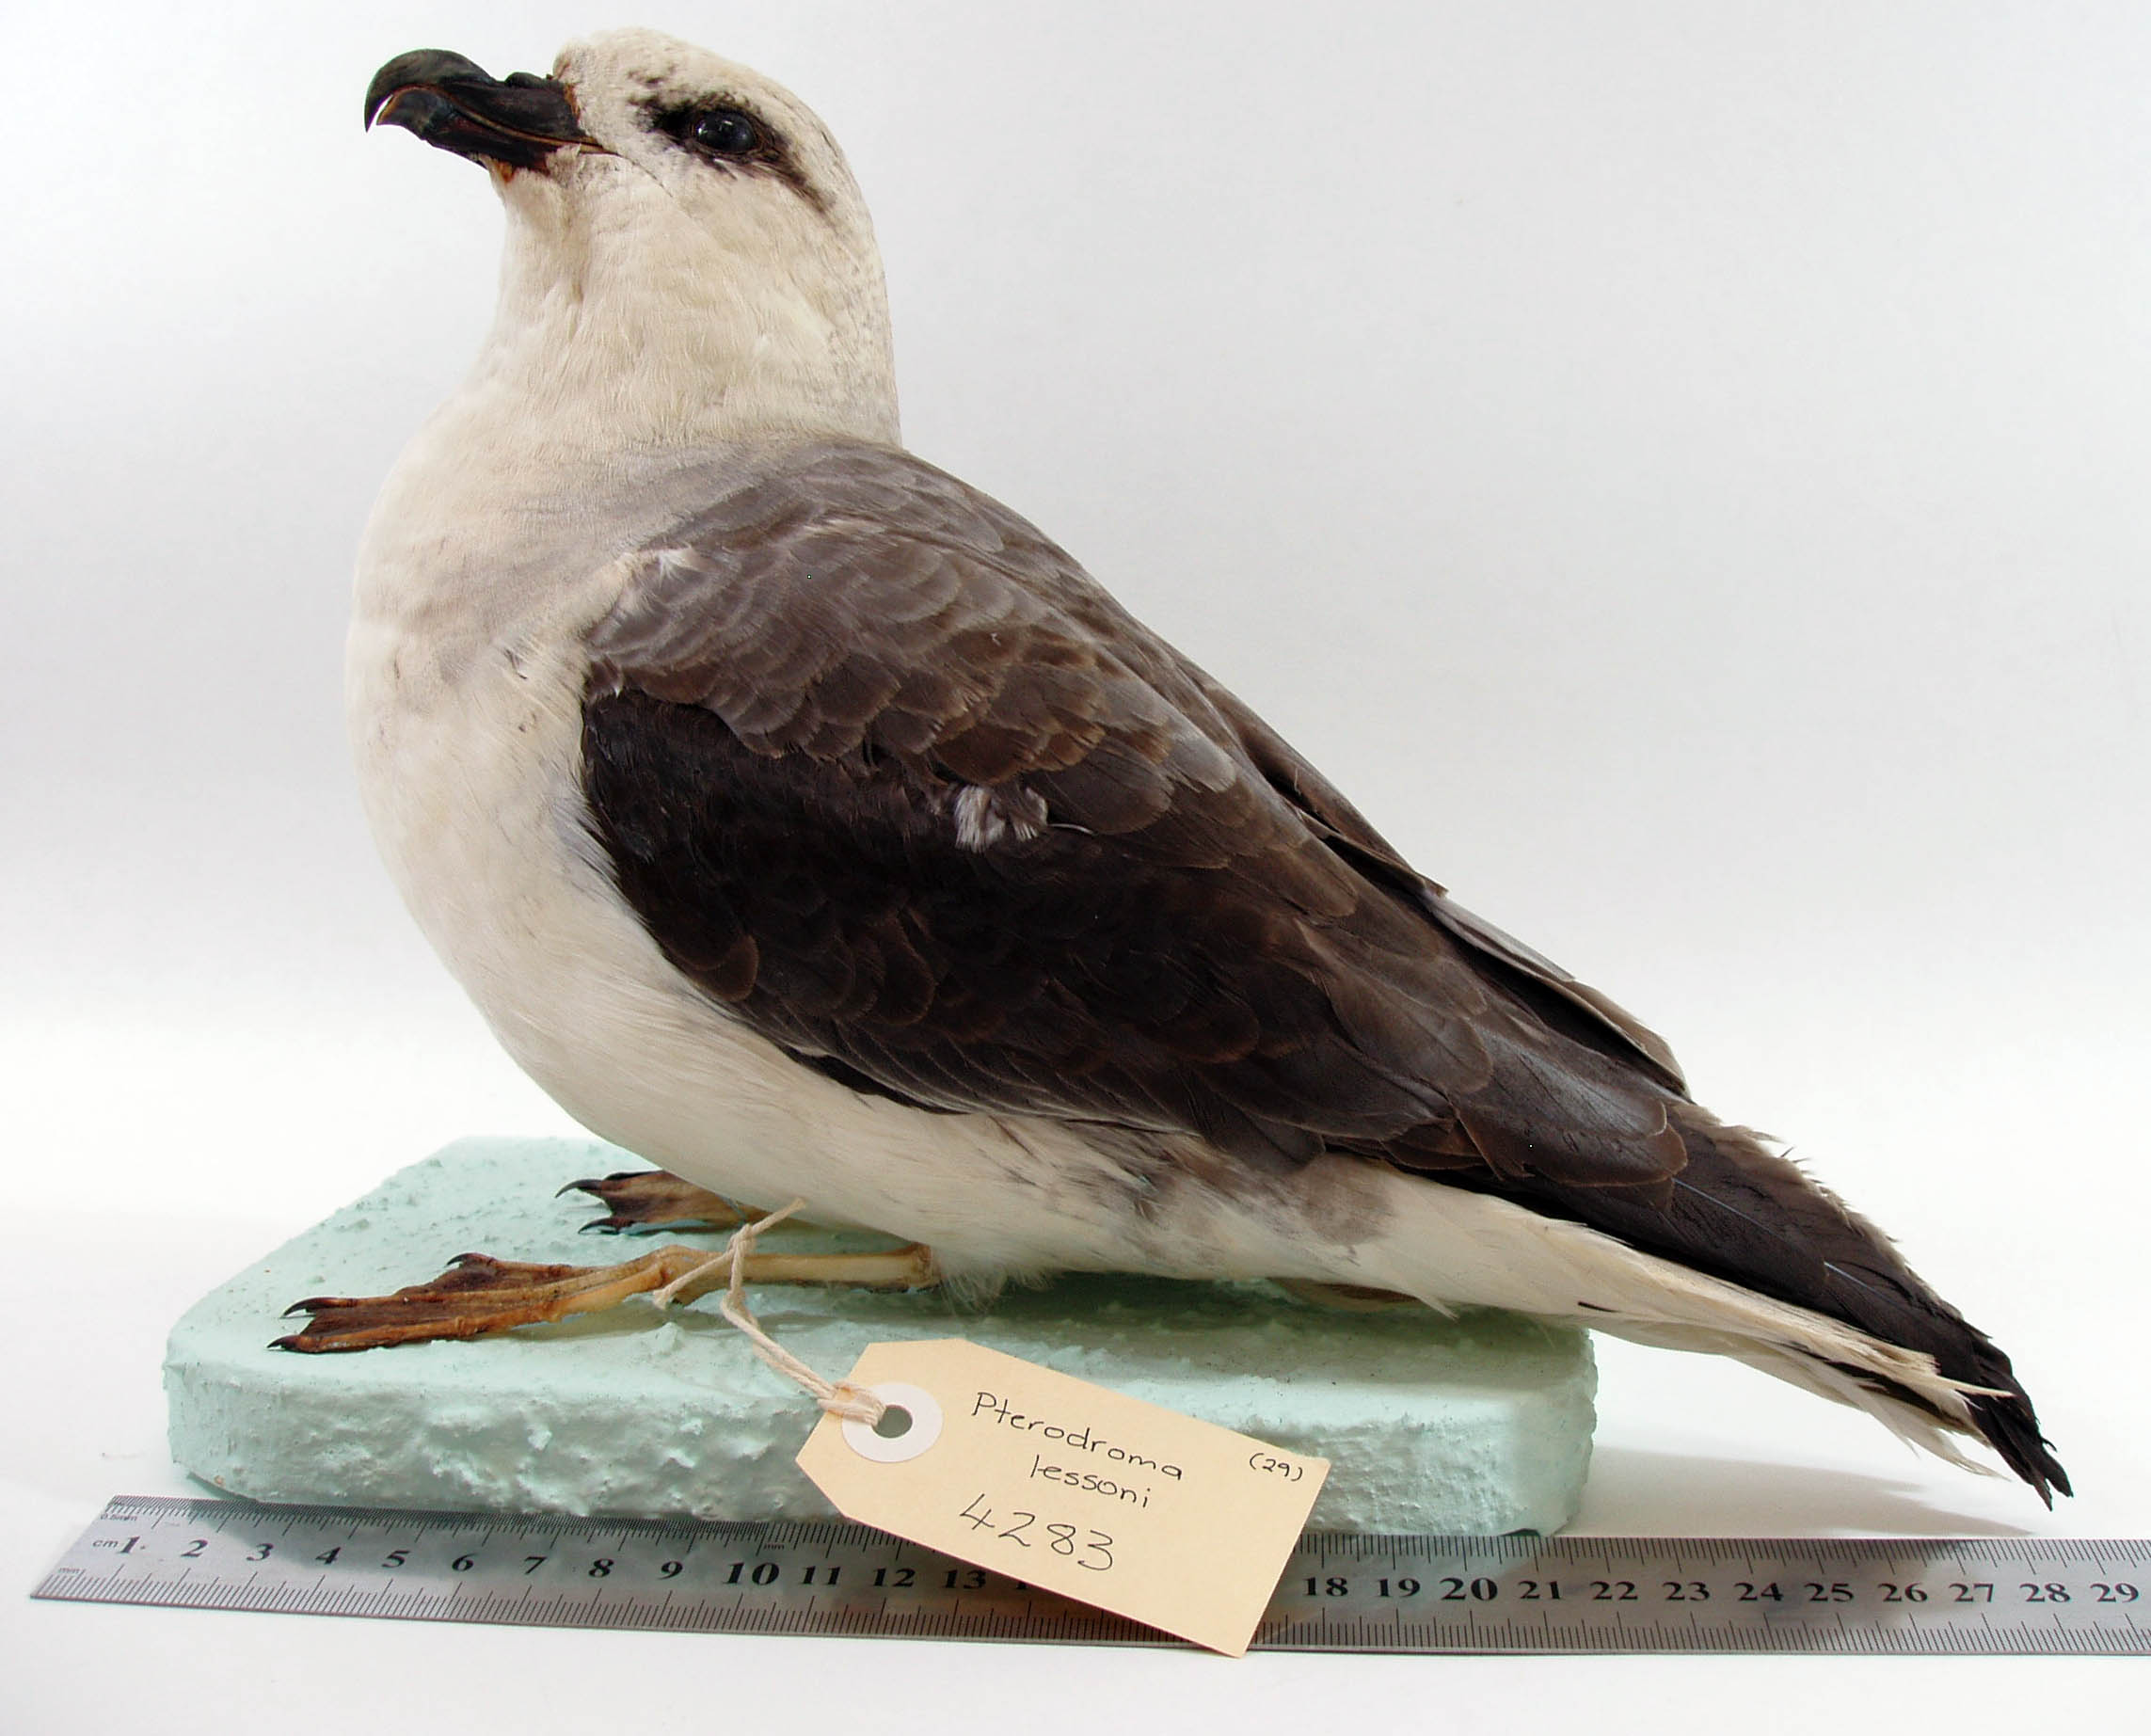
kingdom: Animalia
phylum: Chordata
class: Aves
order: Procellariiformes
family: Procellariidae
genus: Pterodroma
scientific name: Pterodroma lessonii
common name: White-headed petrel
